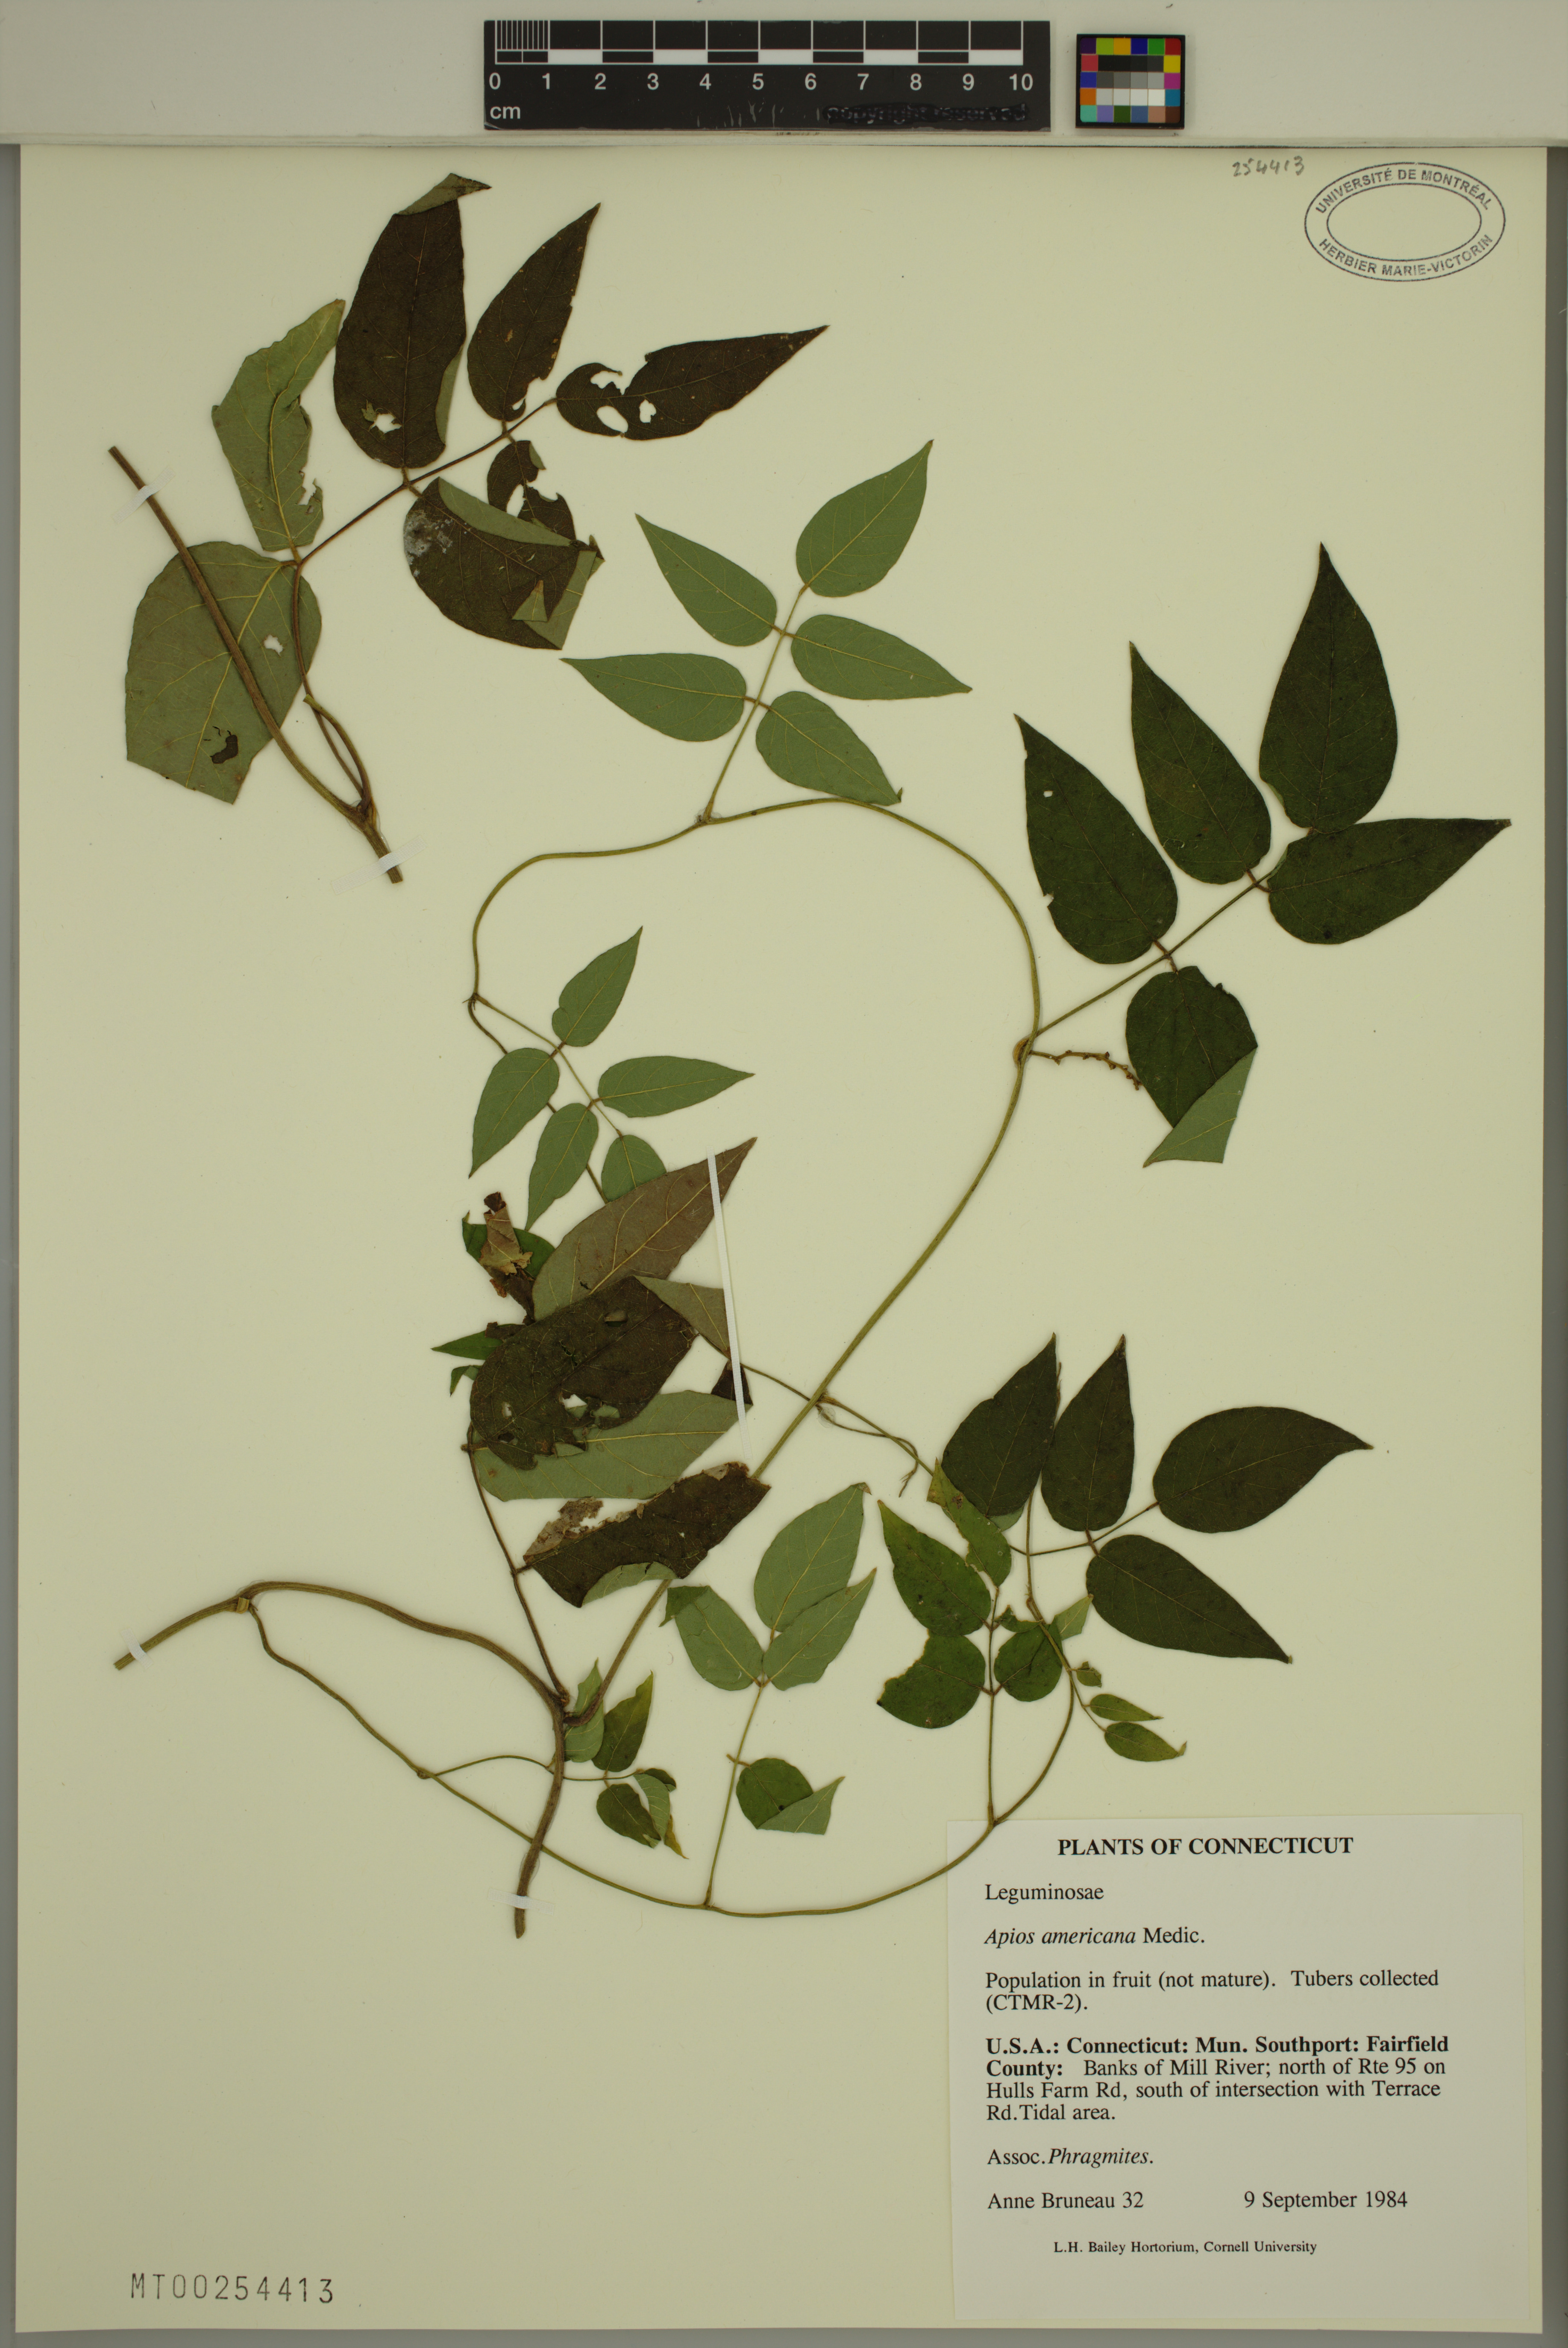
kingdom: Plantae
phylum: Tracheophyta
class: Magnoliopsida
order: Fabales
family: Fabaceae
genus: Apios
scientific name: Apios americana
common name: American potato-bean
